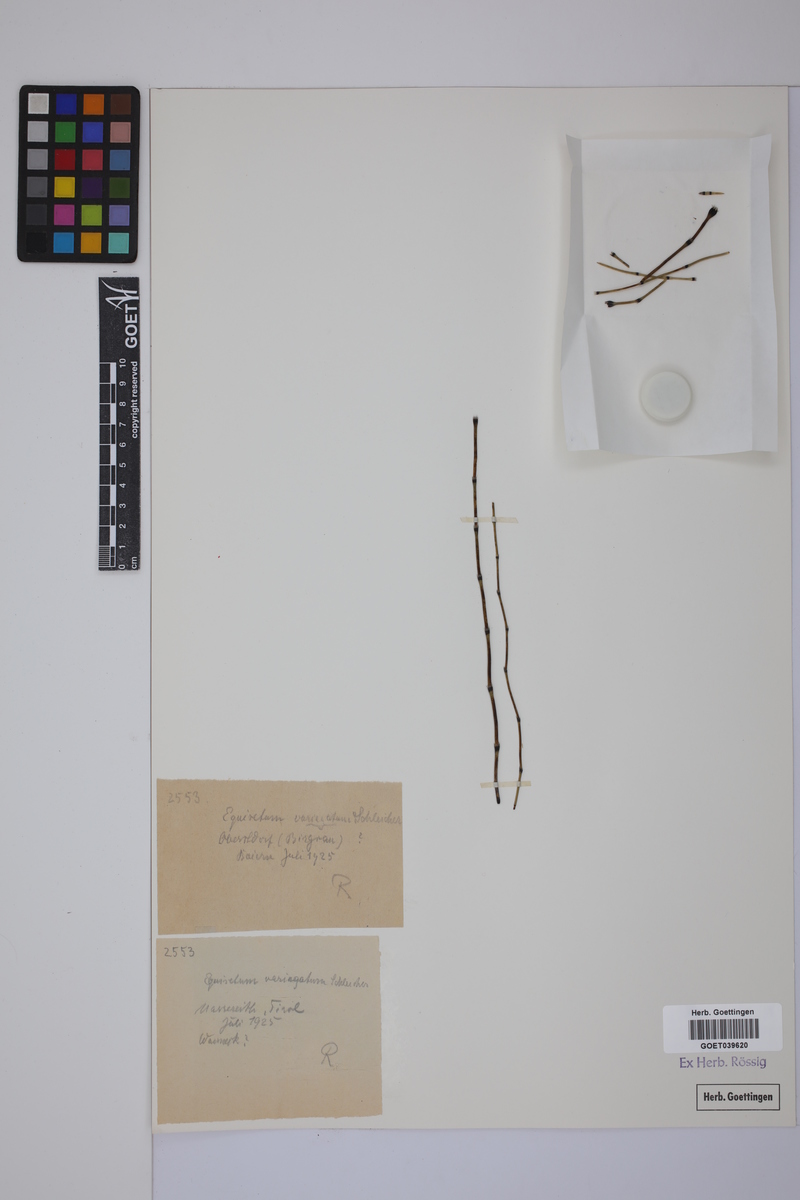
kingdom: Plantae
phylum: Tracheophyta
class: Polypodiopsida
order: Equisetales
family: Equisetaceae
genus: Equisetum
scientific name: Equisetum variegatum
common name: Variegated horsetail
